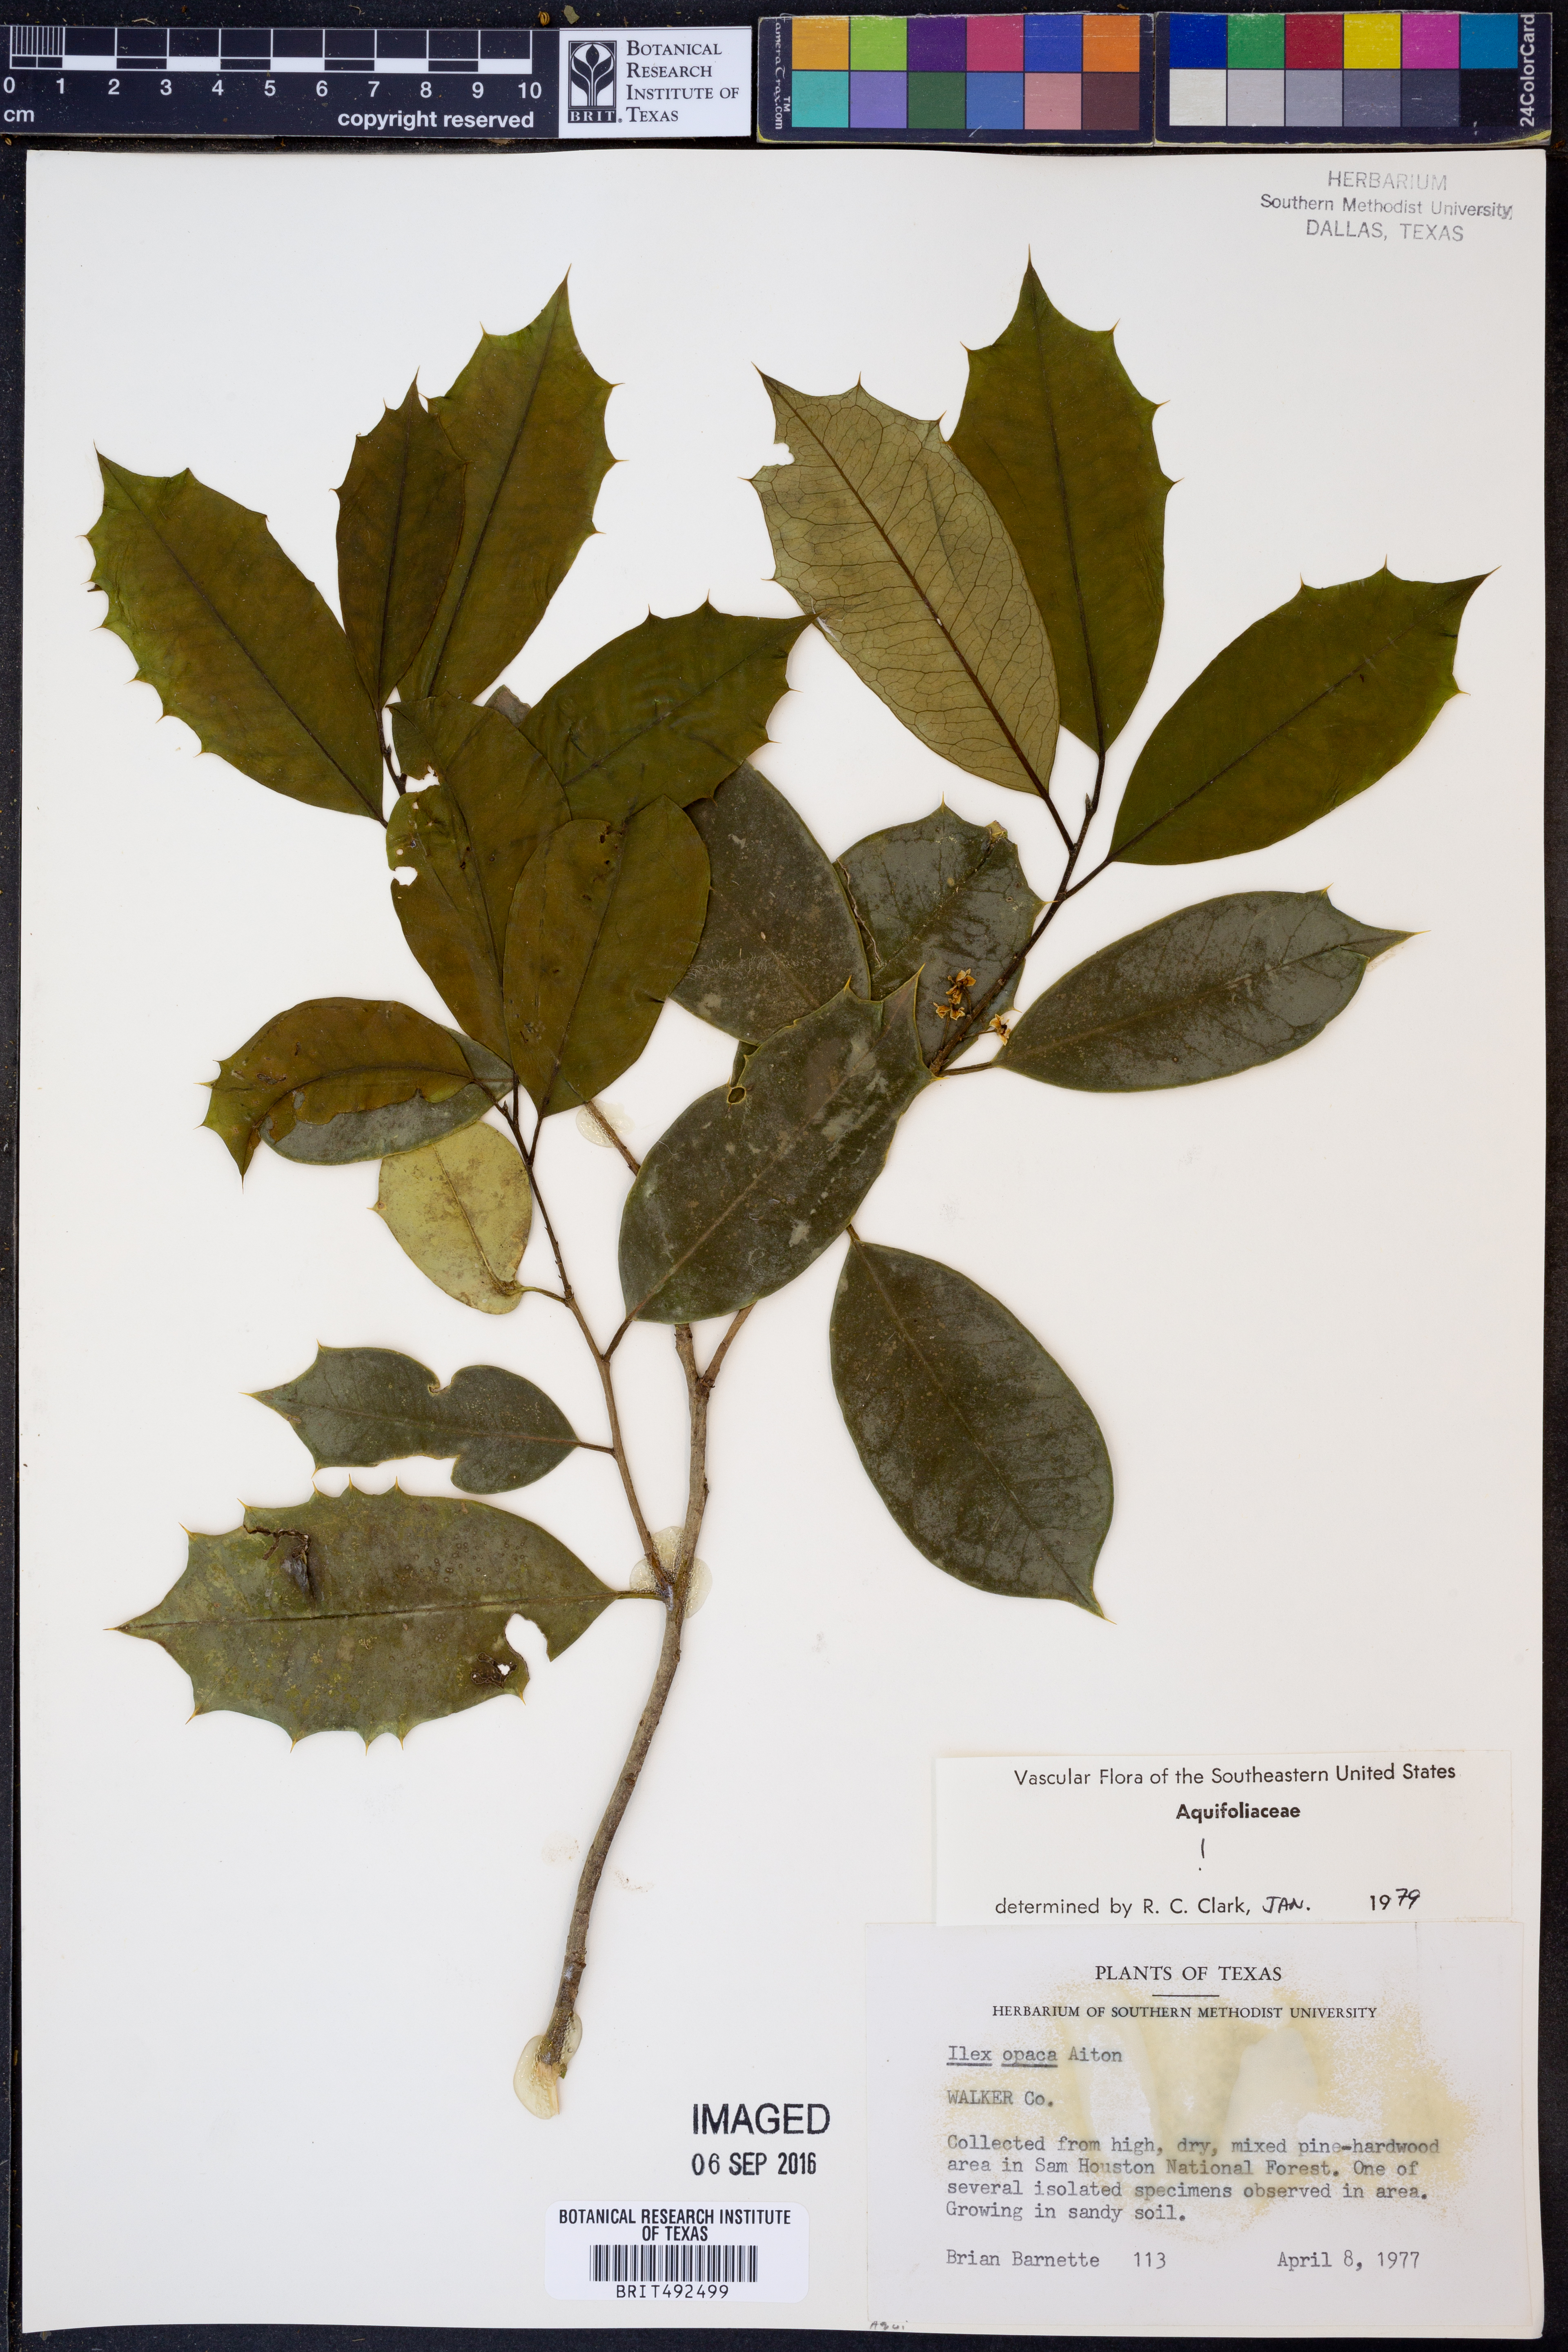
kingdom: Plantae
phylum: Tracheophyta
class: Magnoliopsida
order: Aquifoliales
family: Aquifoliaceae
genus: Ilex
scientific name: Ilex opaca
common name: American holly
